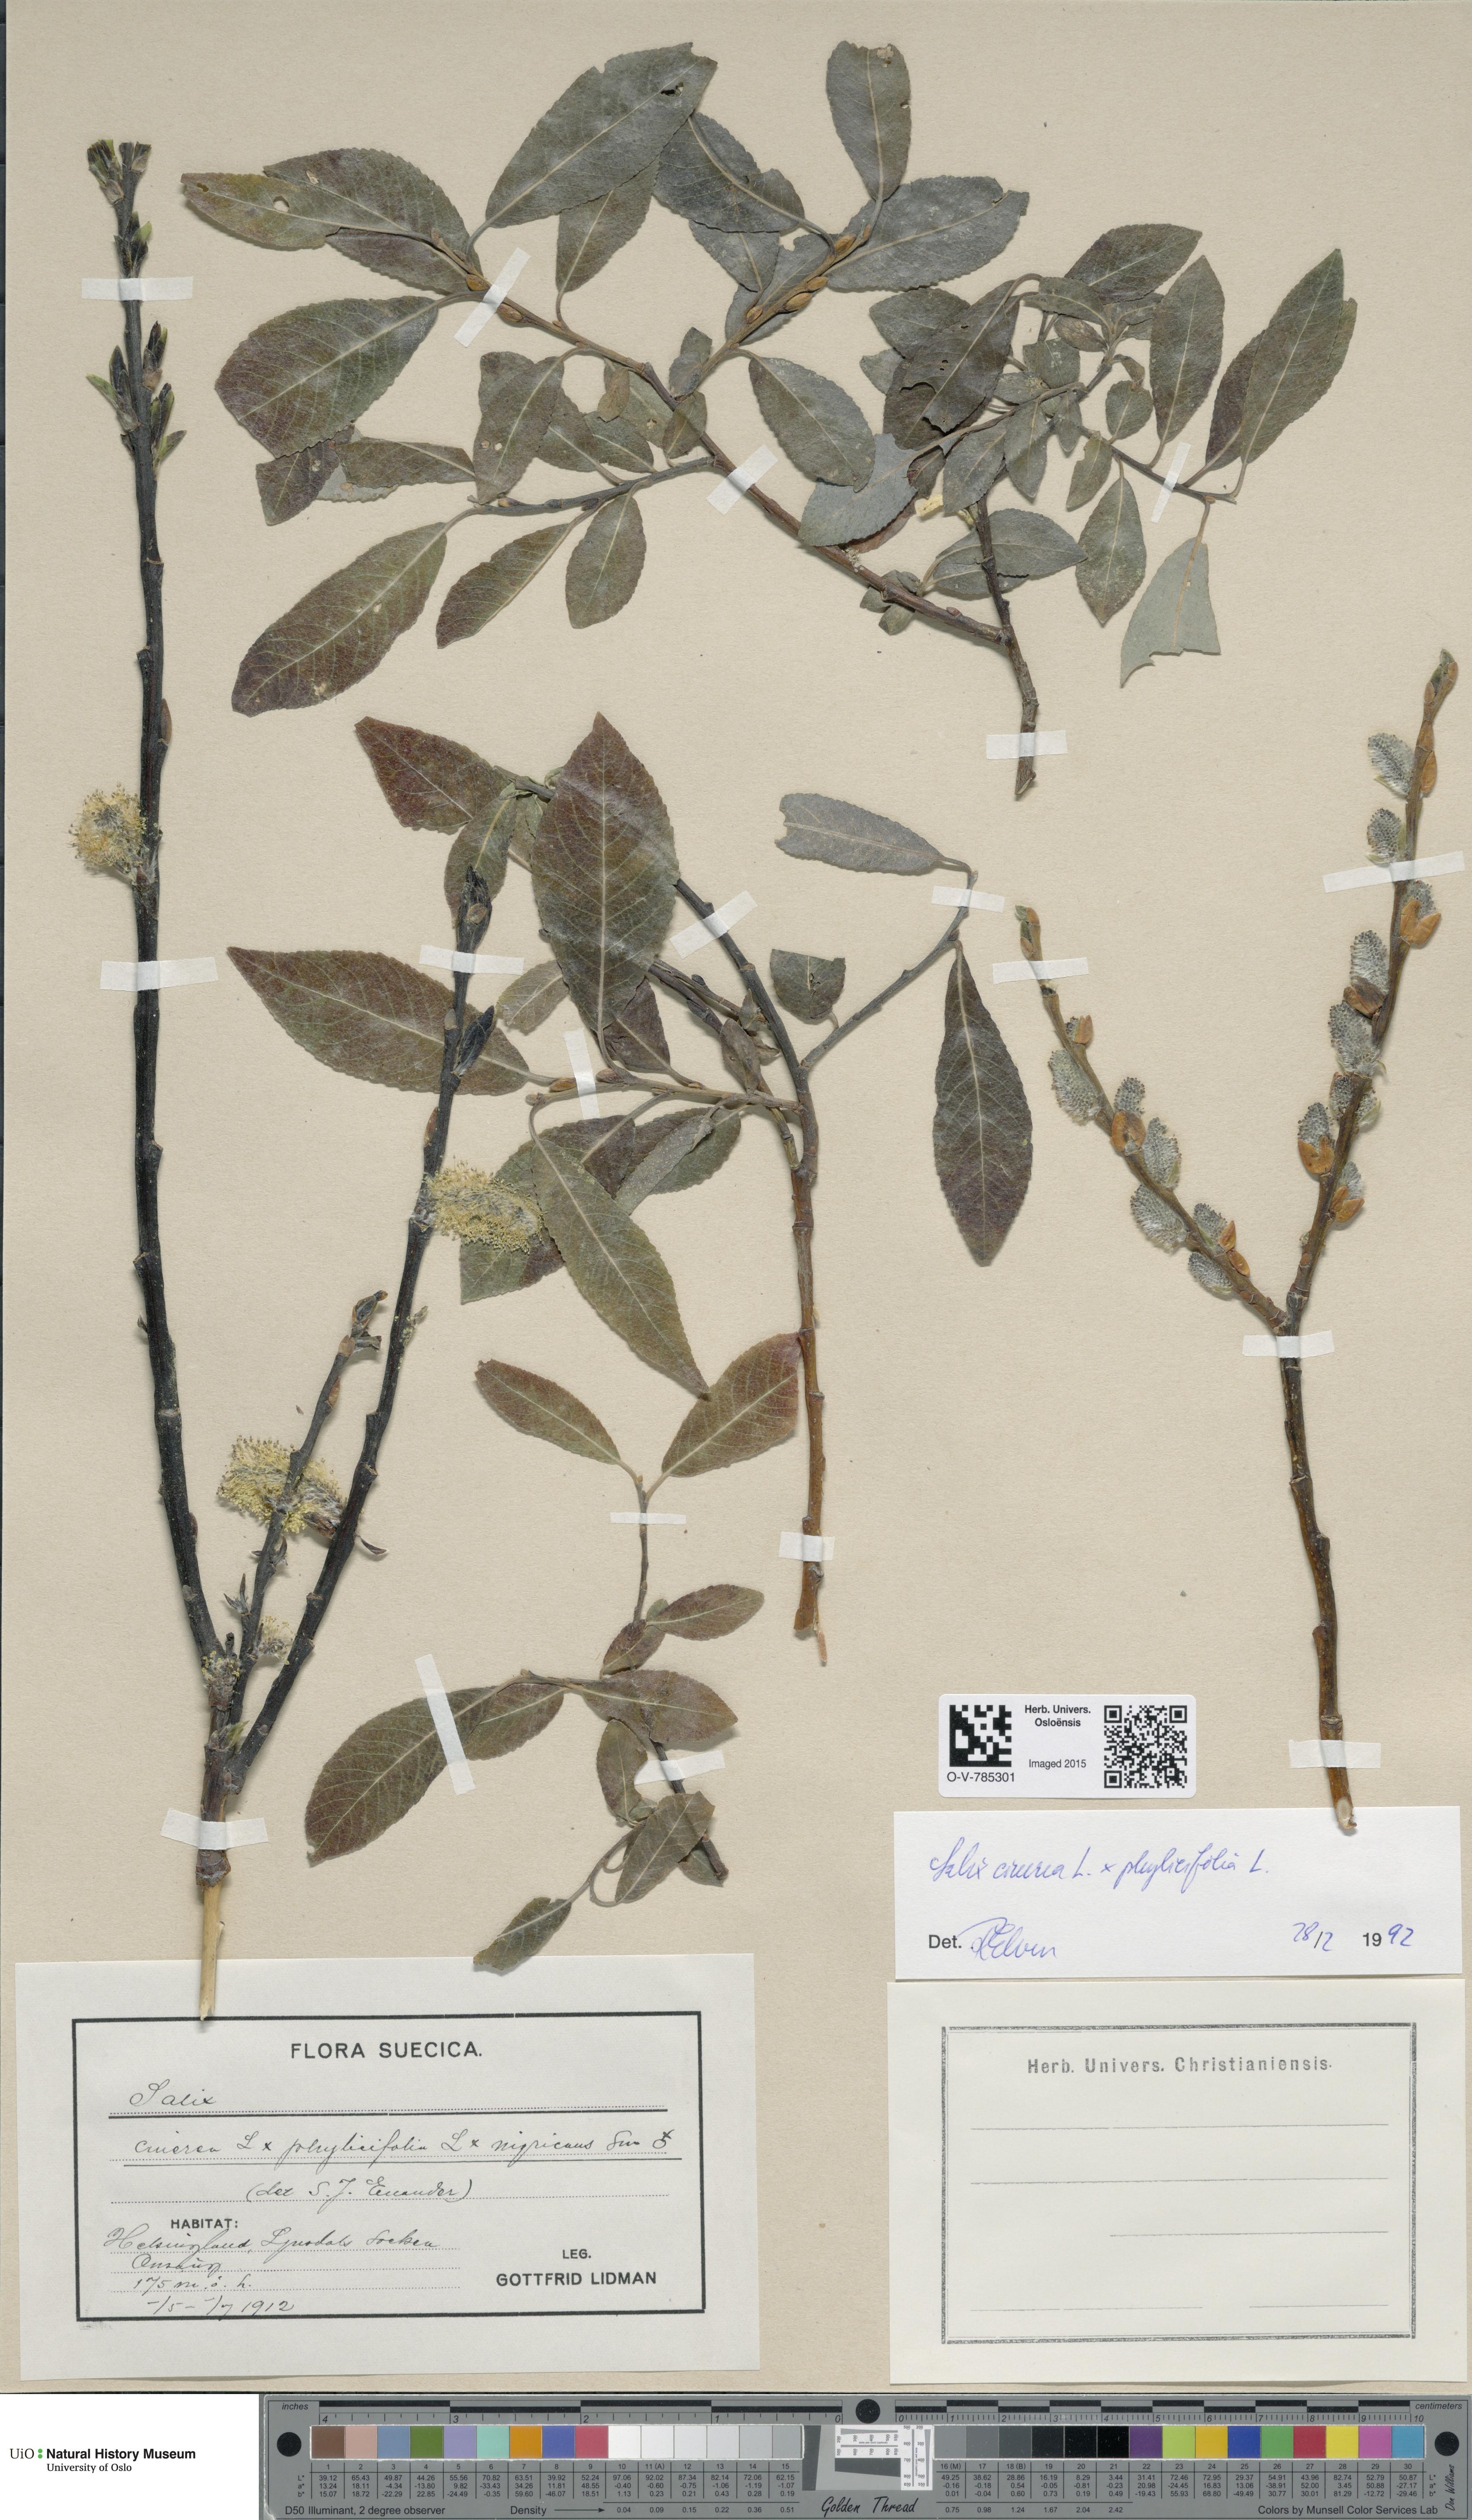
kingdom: Plantae
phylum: Tracheophyta
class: Magnoliopsida
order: Malpighiales
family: Salicaceae
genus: Salix
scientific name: Salix
